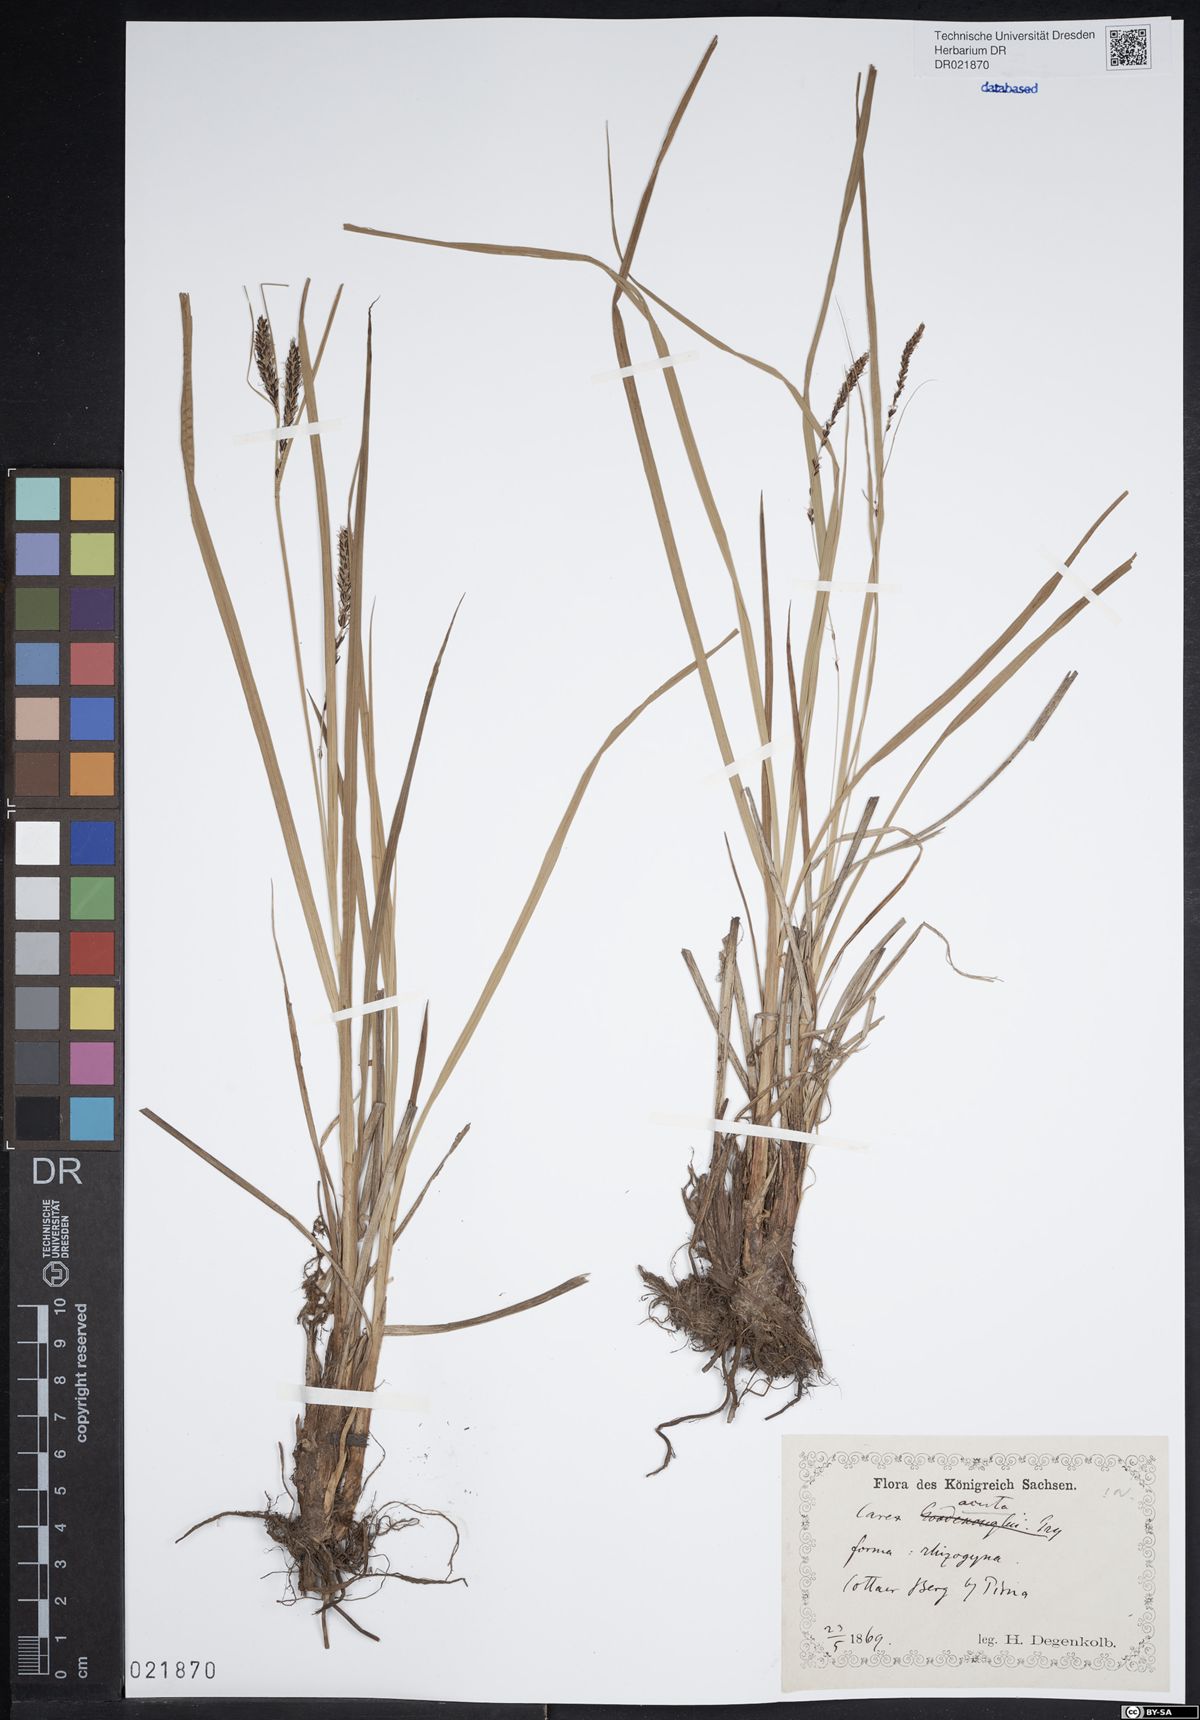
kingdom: Plantae
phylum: Tracheophyta
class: Liliopsida
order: Poales
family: Cyperaceae
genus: Carex
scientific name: Carex acuta
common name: Slender tufted-sedge
